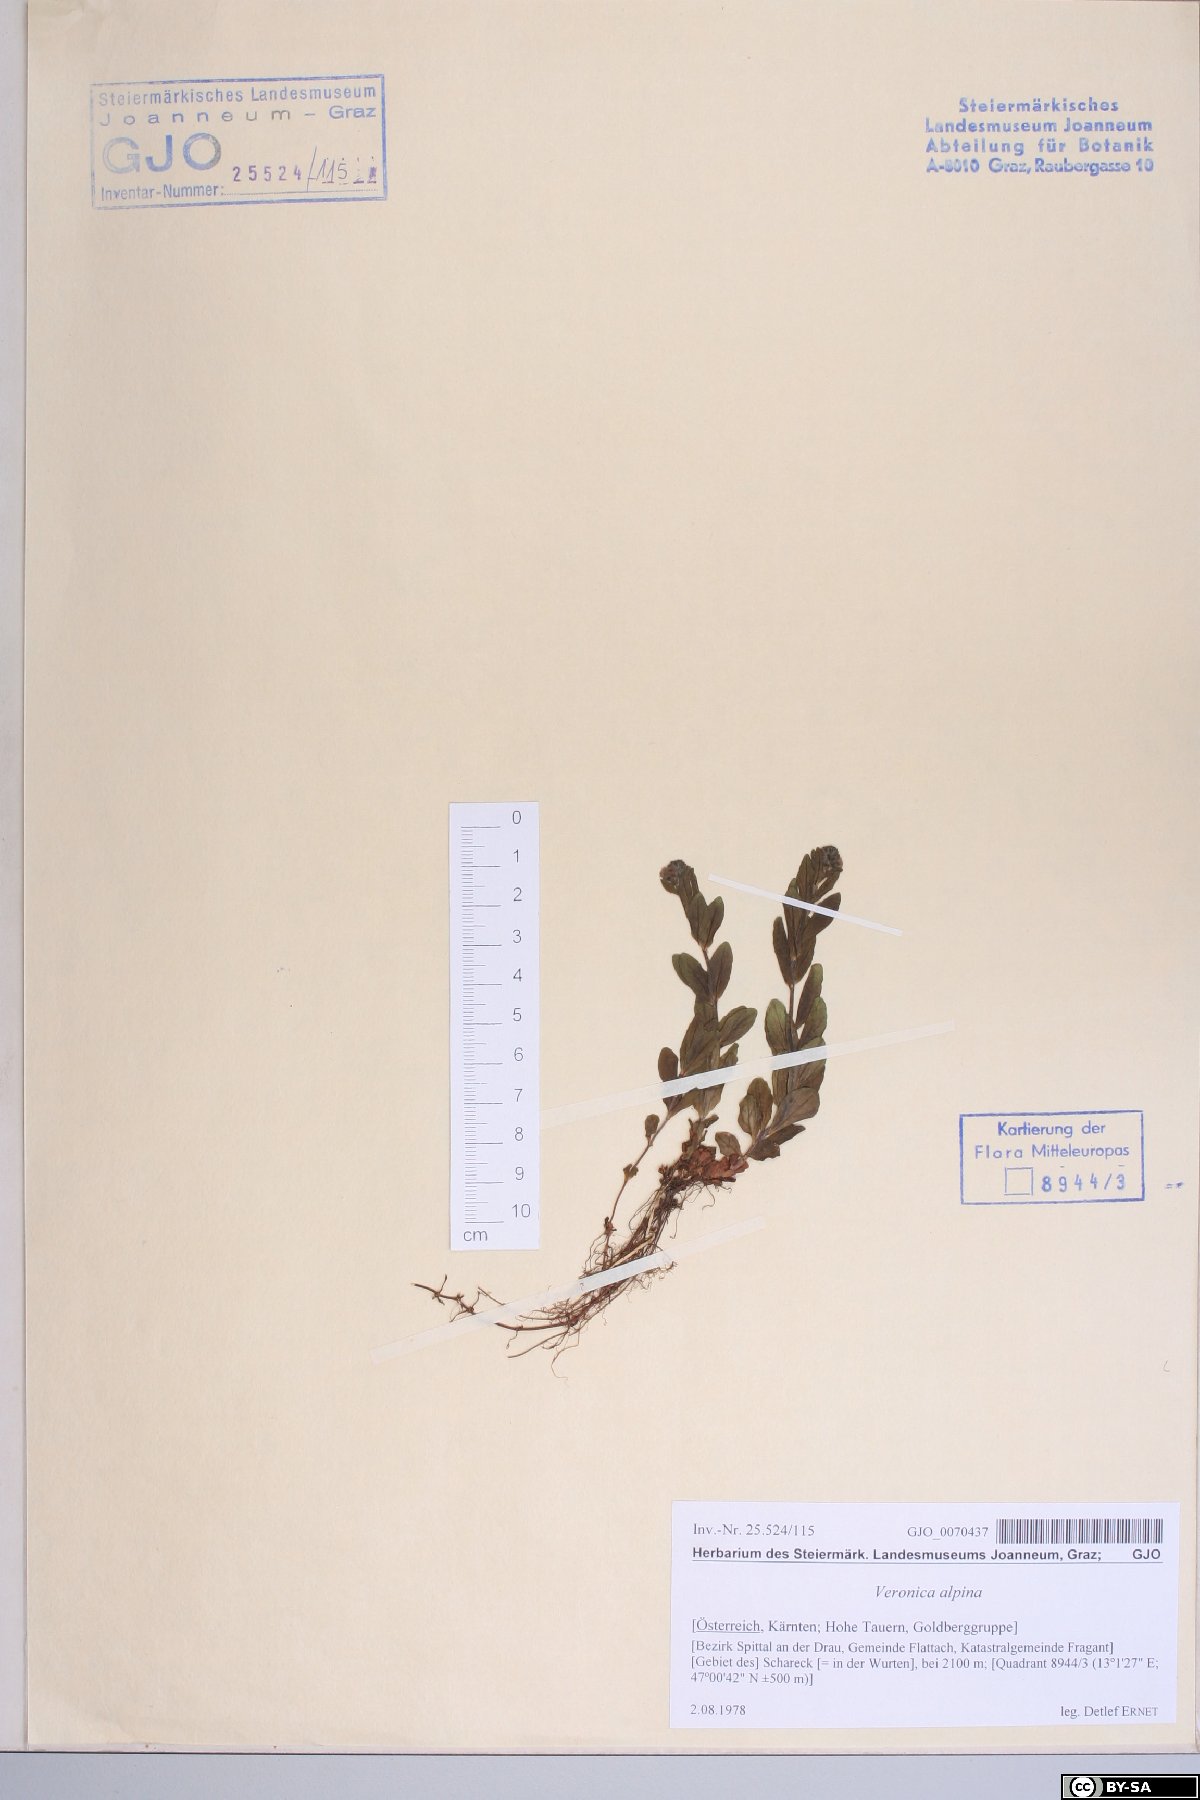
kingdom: Plantae
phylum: Tracheophyta
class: Magnoliopsida
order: Lamiales
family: Plantaginaceae
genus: Veronica
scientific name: Veronica alpina
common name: Alpine speedwell
